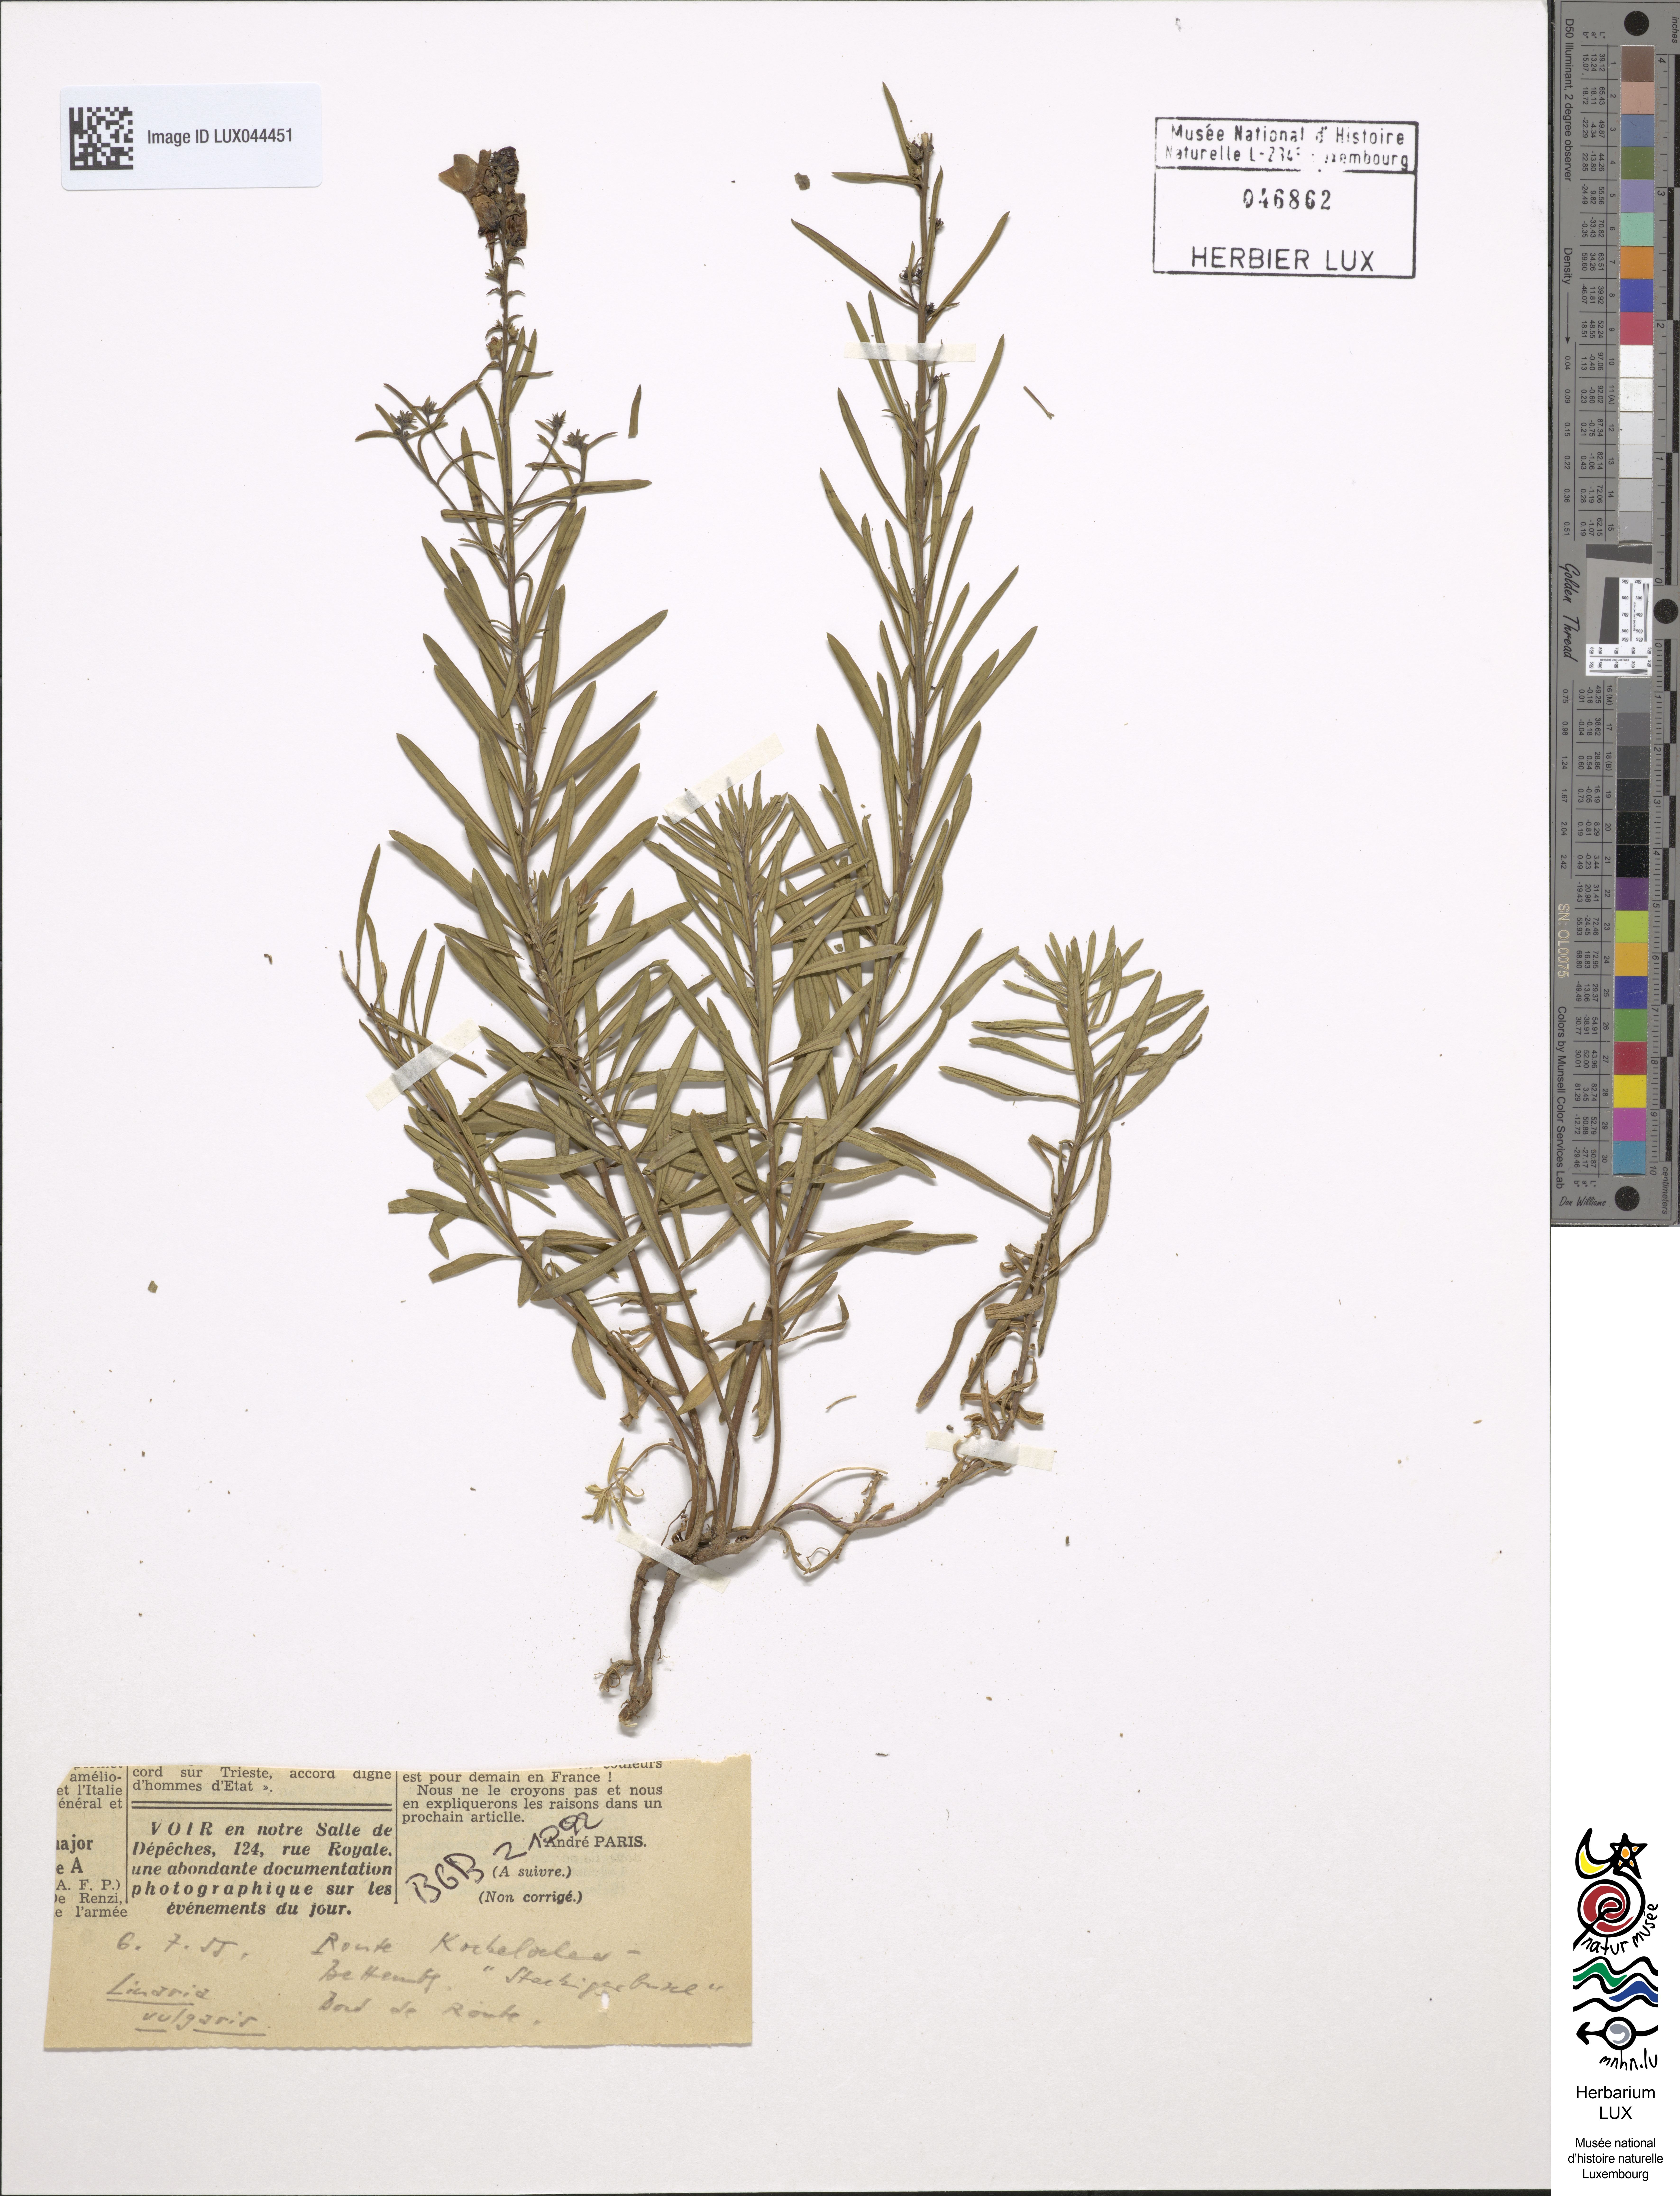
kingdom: Plantae
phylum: Tracheophyta
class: Magnoliopsida
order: Lamiales
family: Plantaginaceae
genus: Linaria
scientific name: Linaria vulgaris
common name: Butter and eggs
